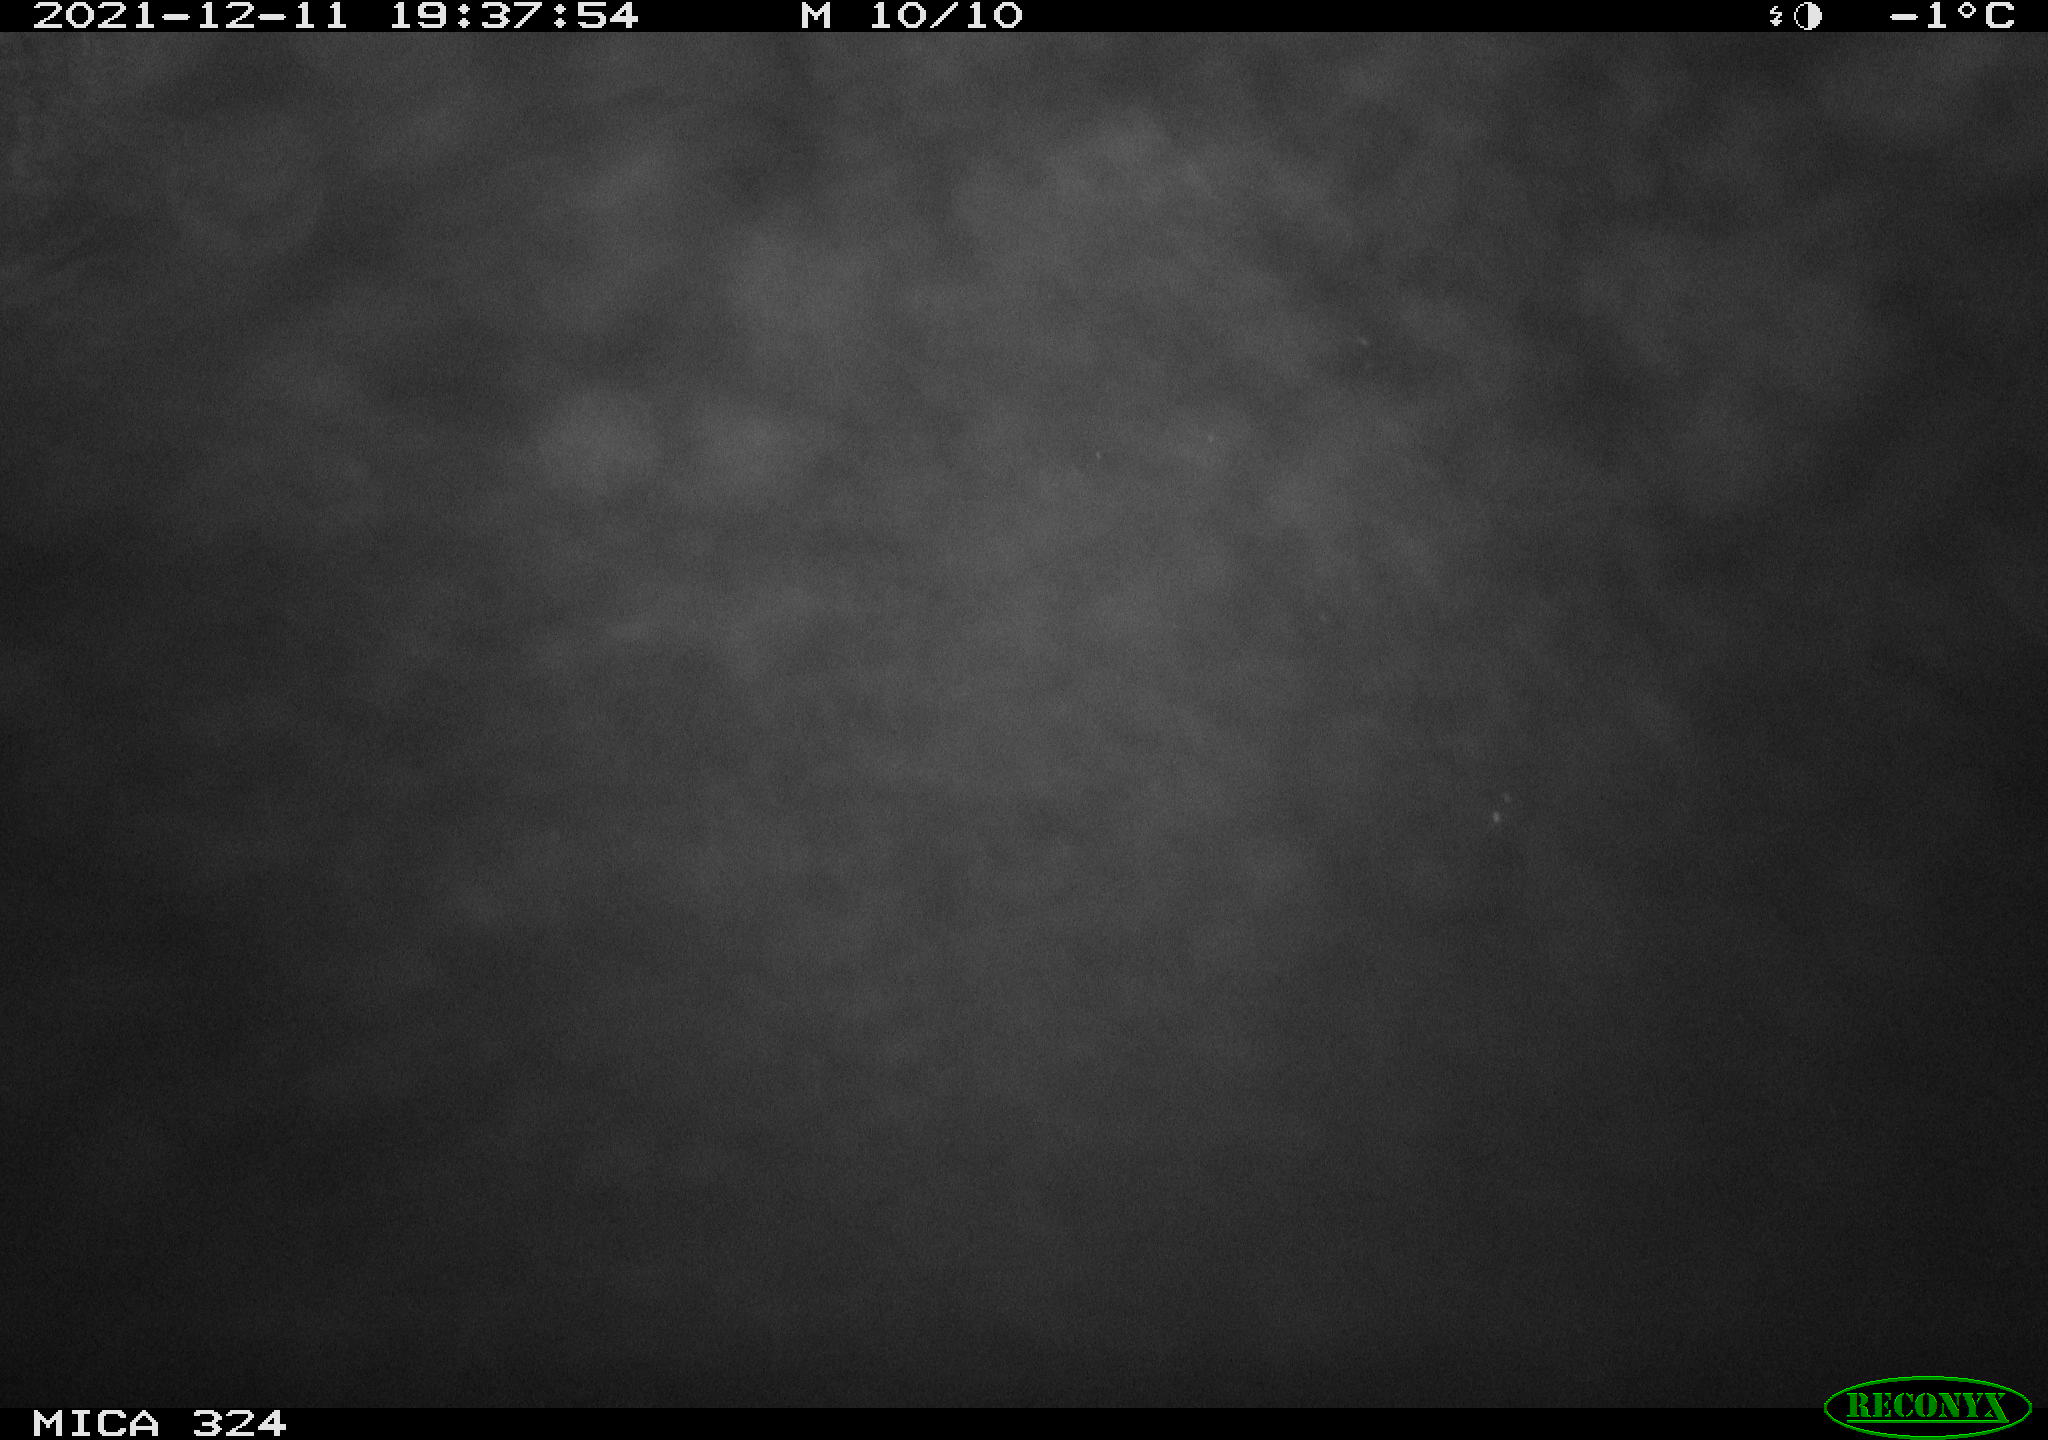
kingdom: Animalia
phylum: Chordata
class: Mammalia
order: Rodentia
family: Cricetidae
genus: Ondatra
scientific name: Ondatra zibethicus
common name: Muskrat
